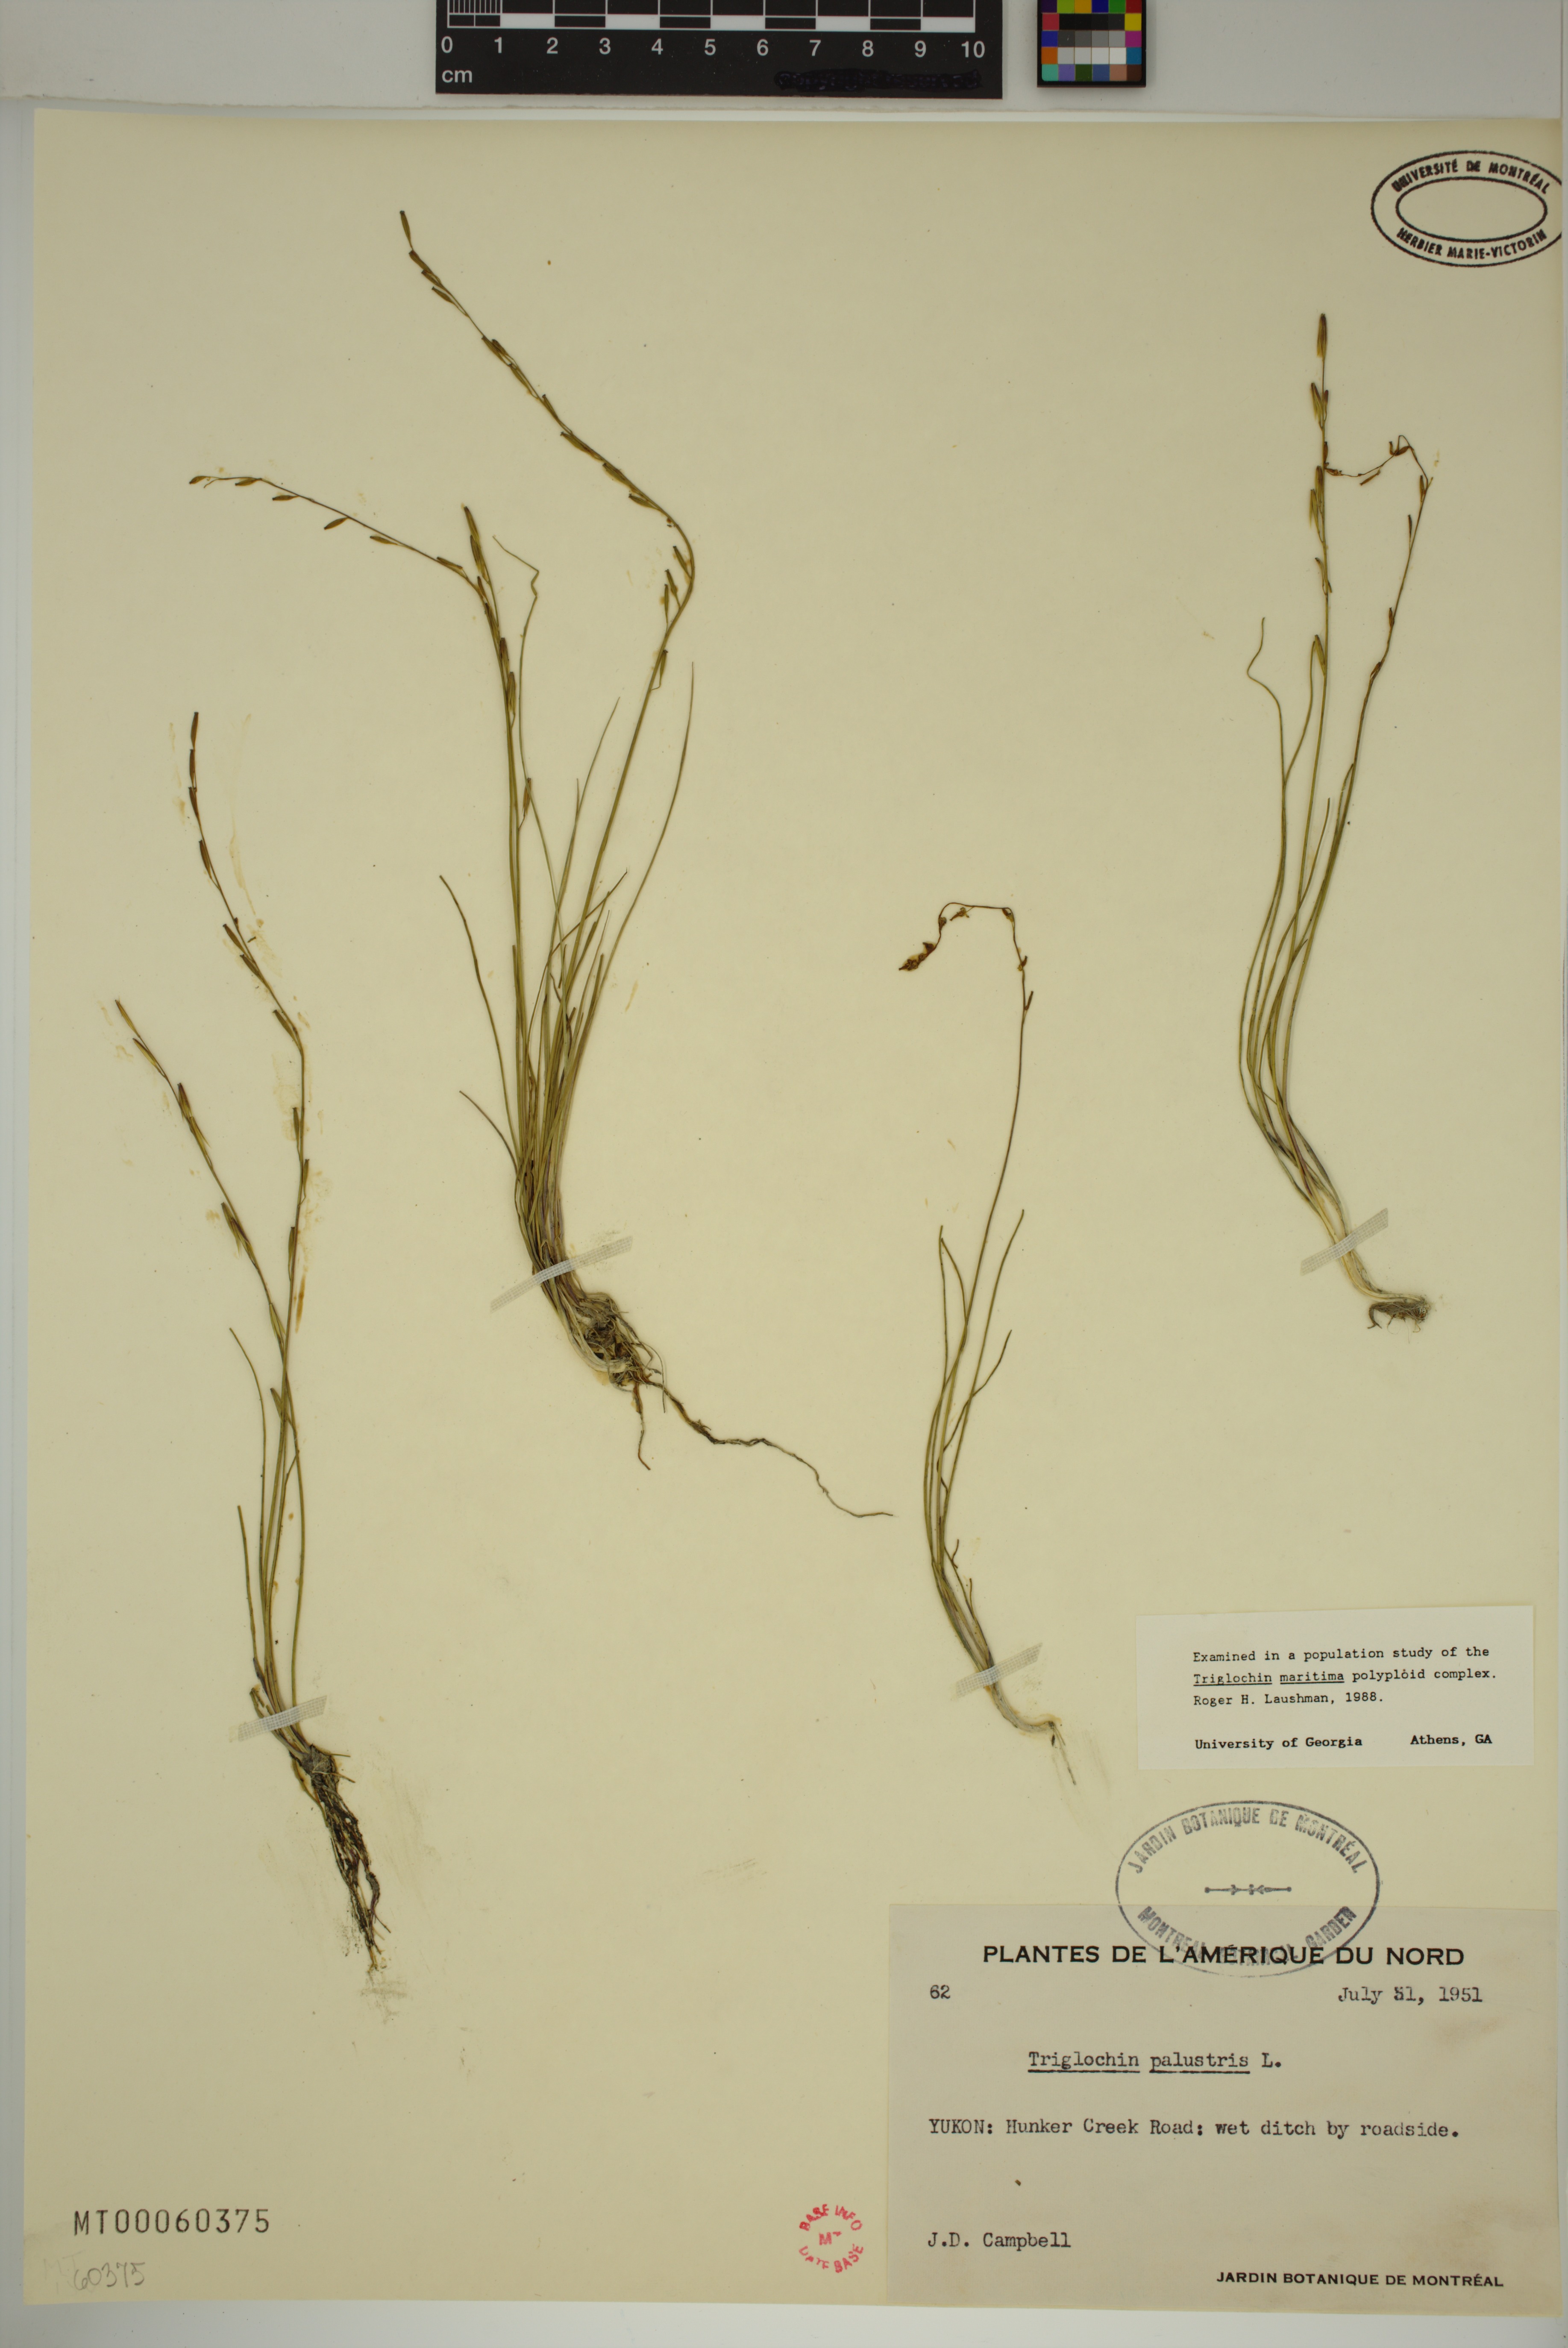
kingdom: Plantae
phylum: Tracheophyta
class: Liliopsida
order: Alismatales
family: Juncaginaceae
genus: Triglochin
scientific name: Triglochin palustris
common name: Marsh arrowgrass
